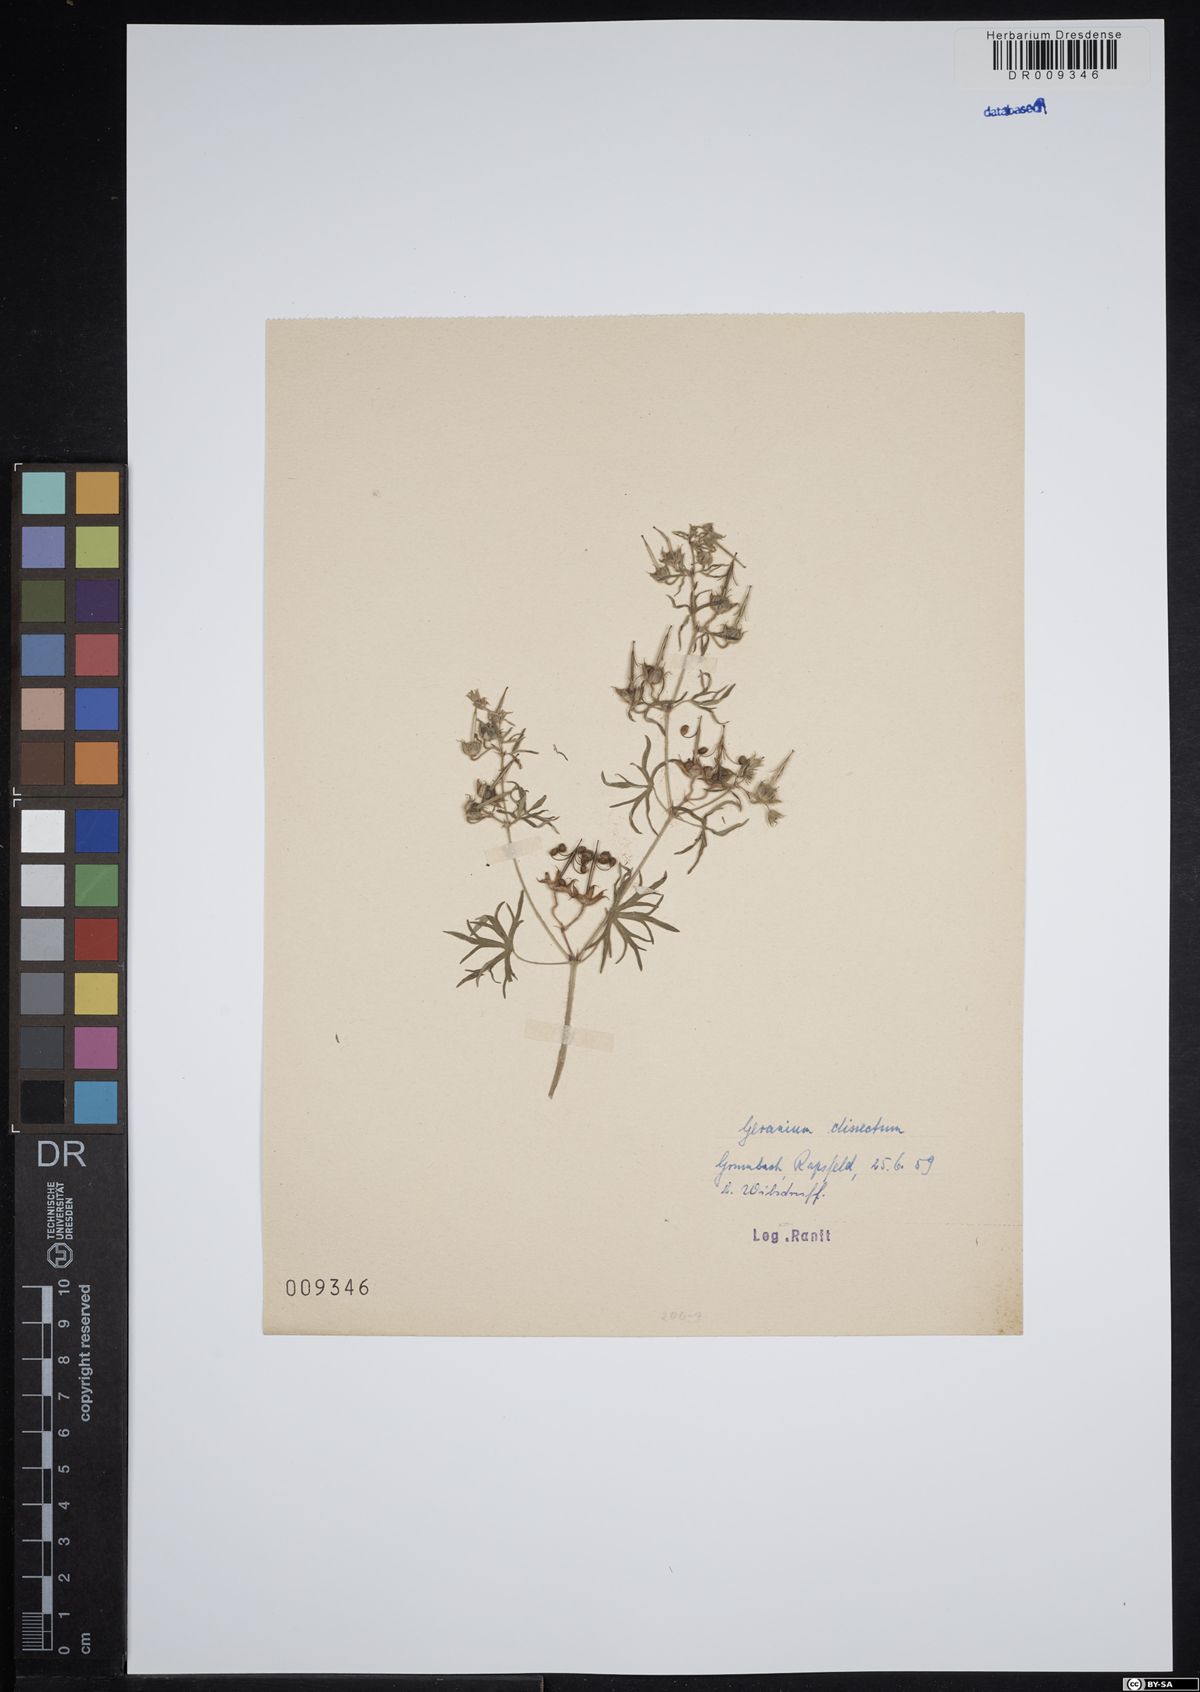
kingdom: Plantae
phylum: Tracheophyta
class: Magnoliopsida
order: Geraniales
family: Geraniaceae
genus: Geranium
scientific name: Geranium dissectum
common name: Cut-leaved crane's-bill
